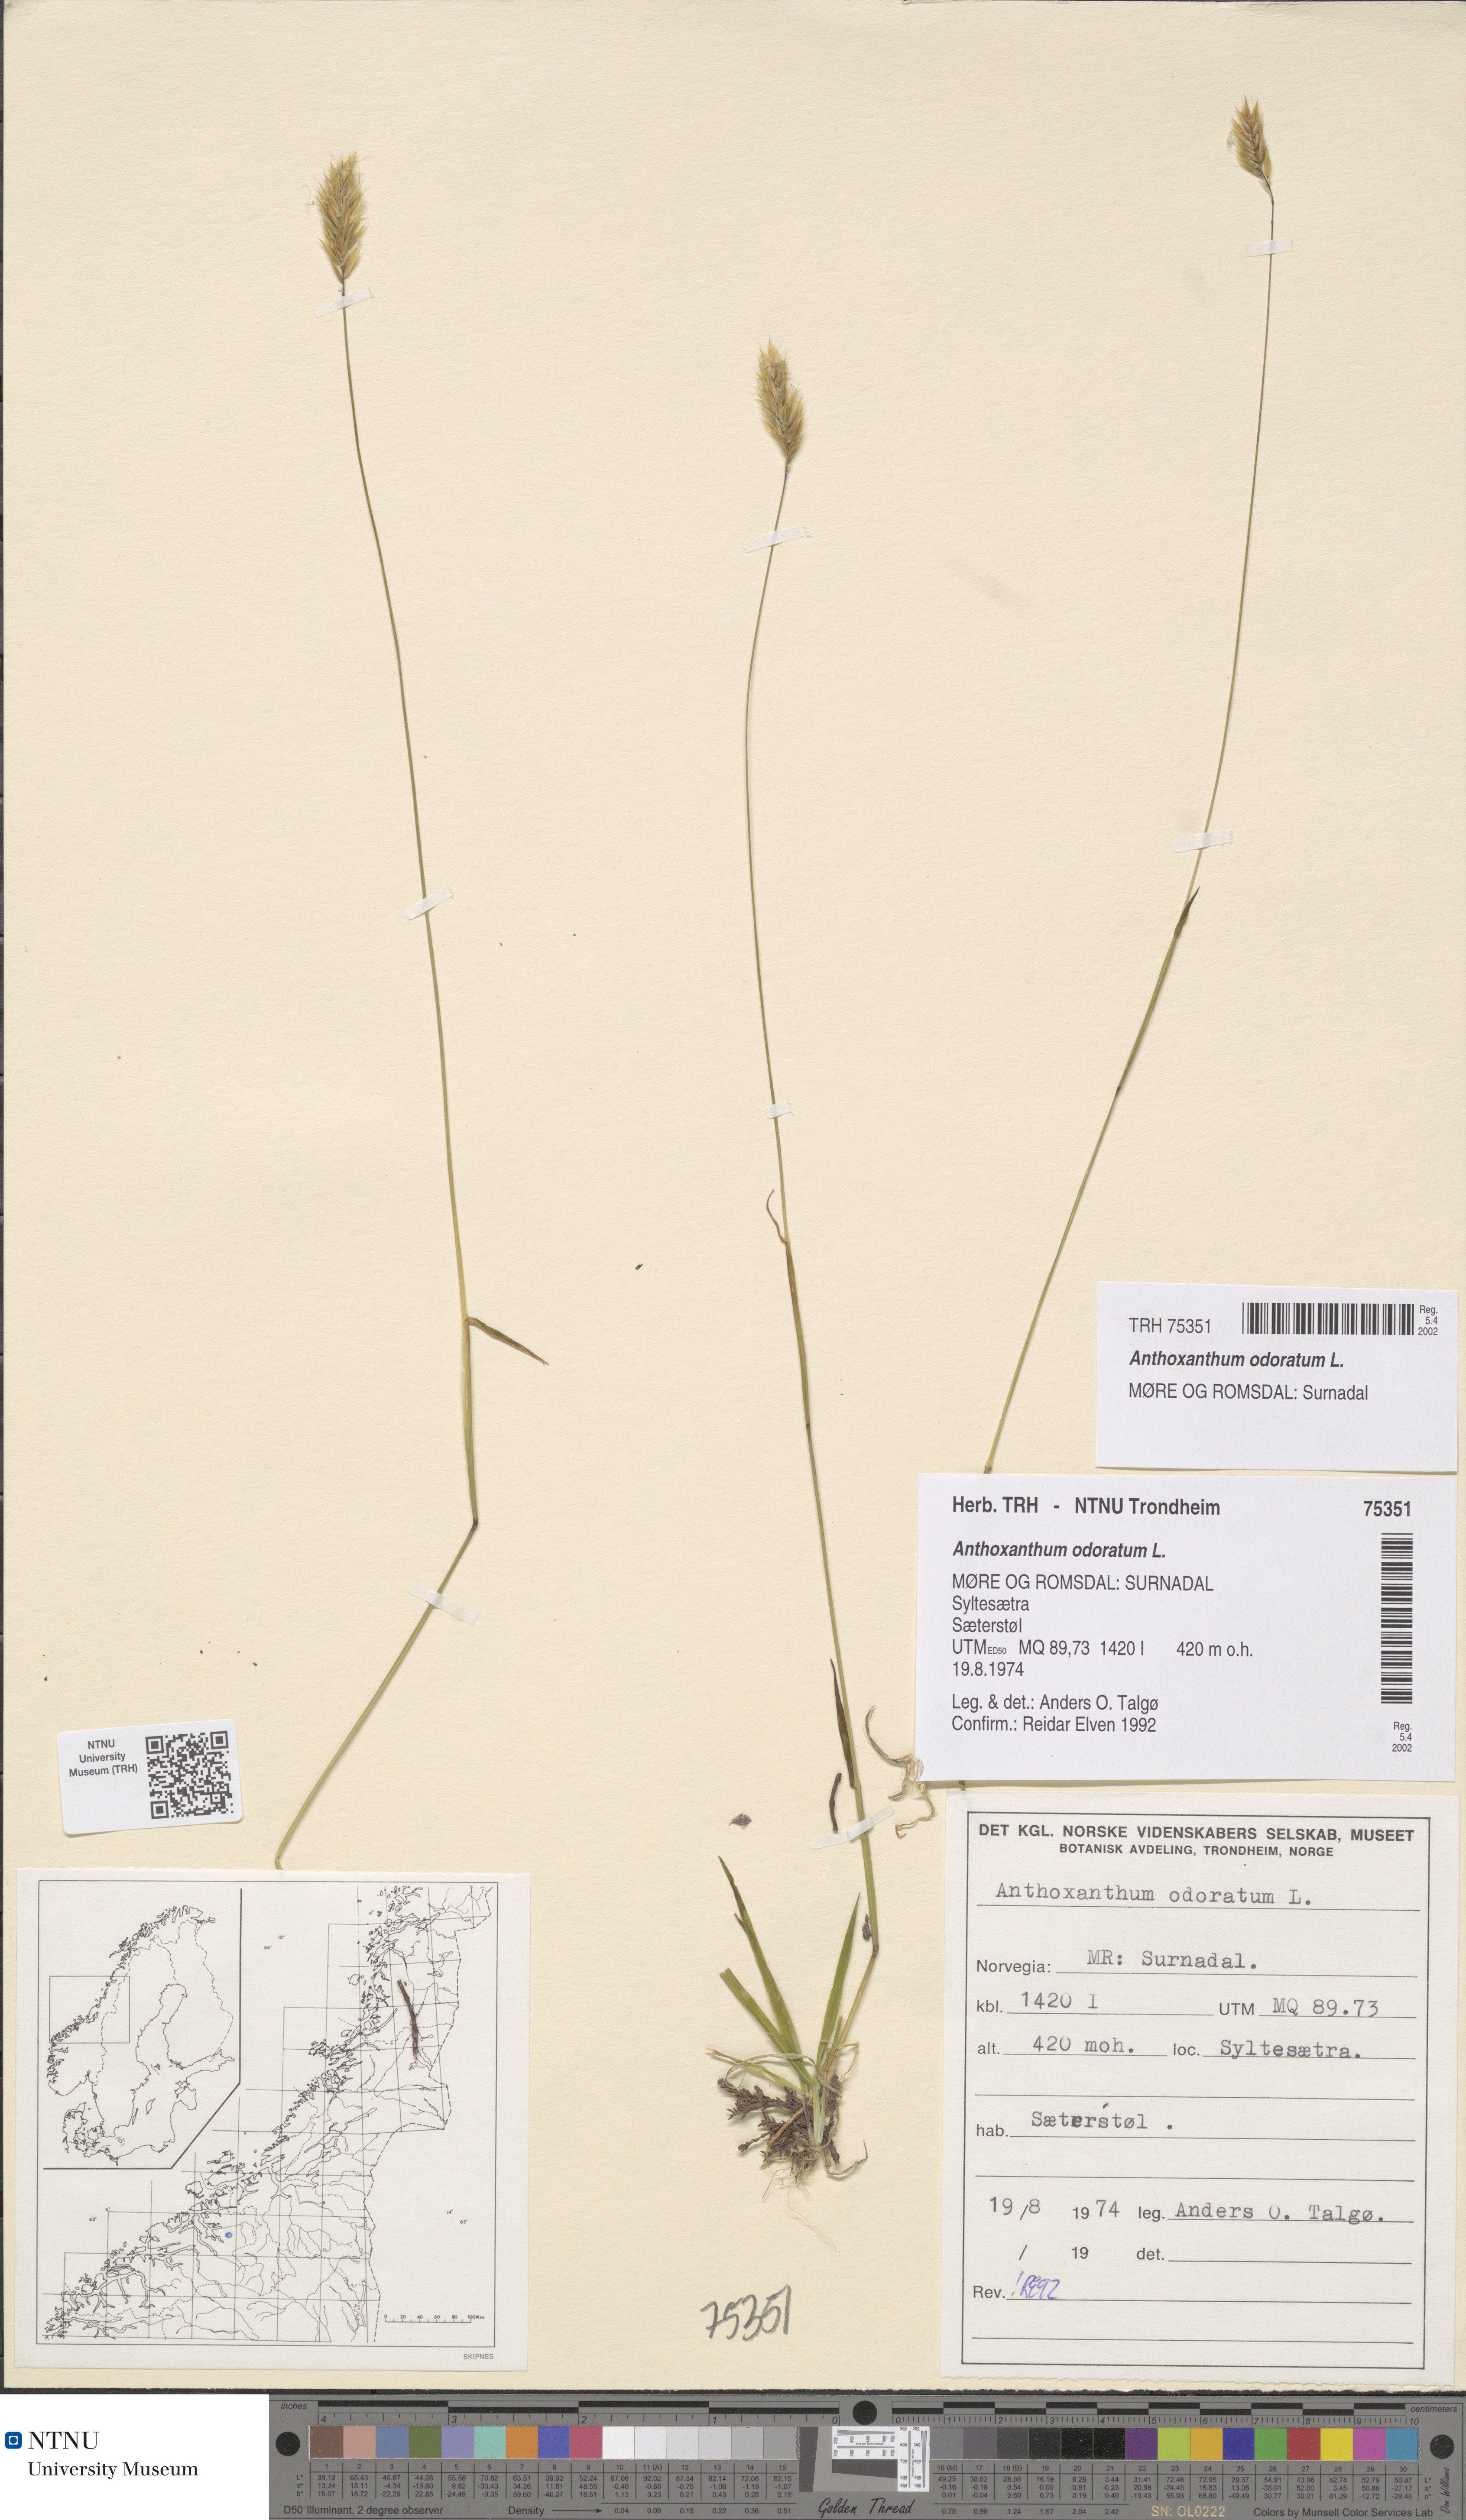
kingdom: Plantae
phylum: Tracheophyta
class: Liliopsida
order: Poales
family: Poaceae
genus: Anthoxanthum
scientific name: Anthoxanthum odoratum
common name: Sweet vernalgrass
